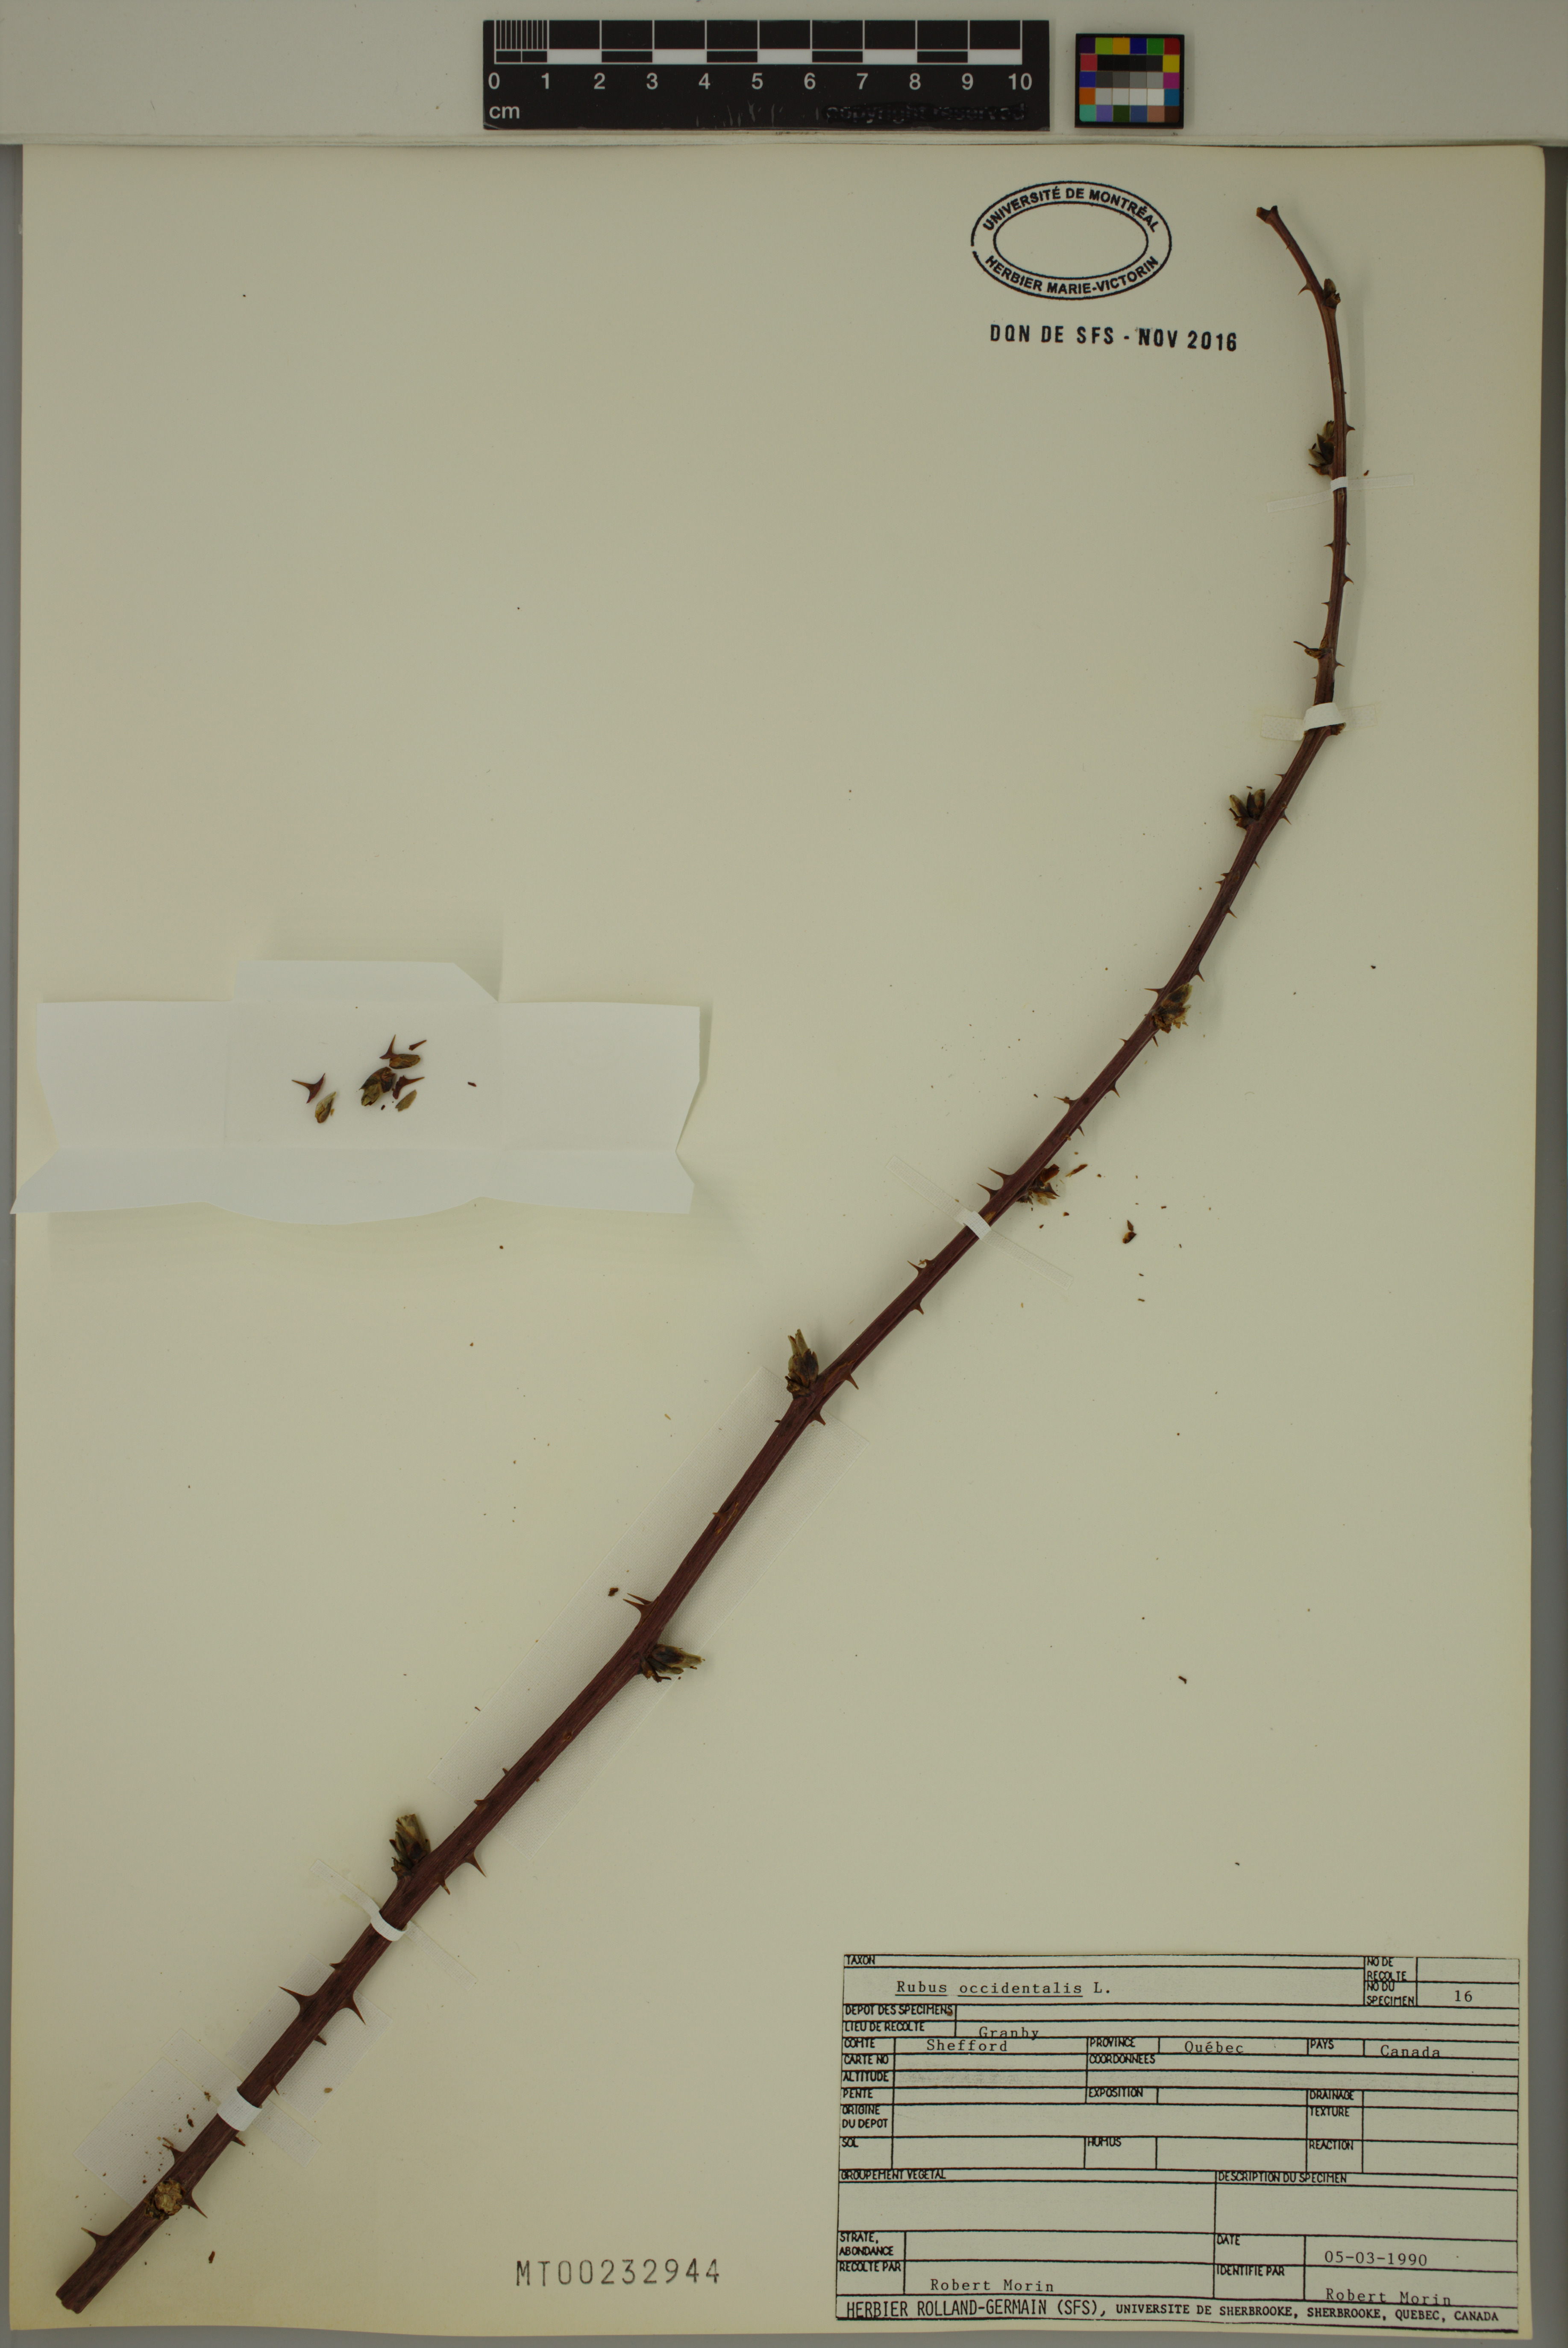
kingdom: Plantae
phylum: Tracheophyta
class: Magnoliopsida
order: Rosales
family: Rosaceae
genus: Rubus
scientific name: Rubus occidentalis
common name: Black raspberry
